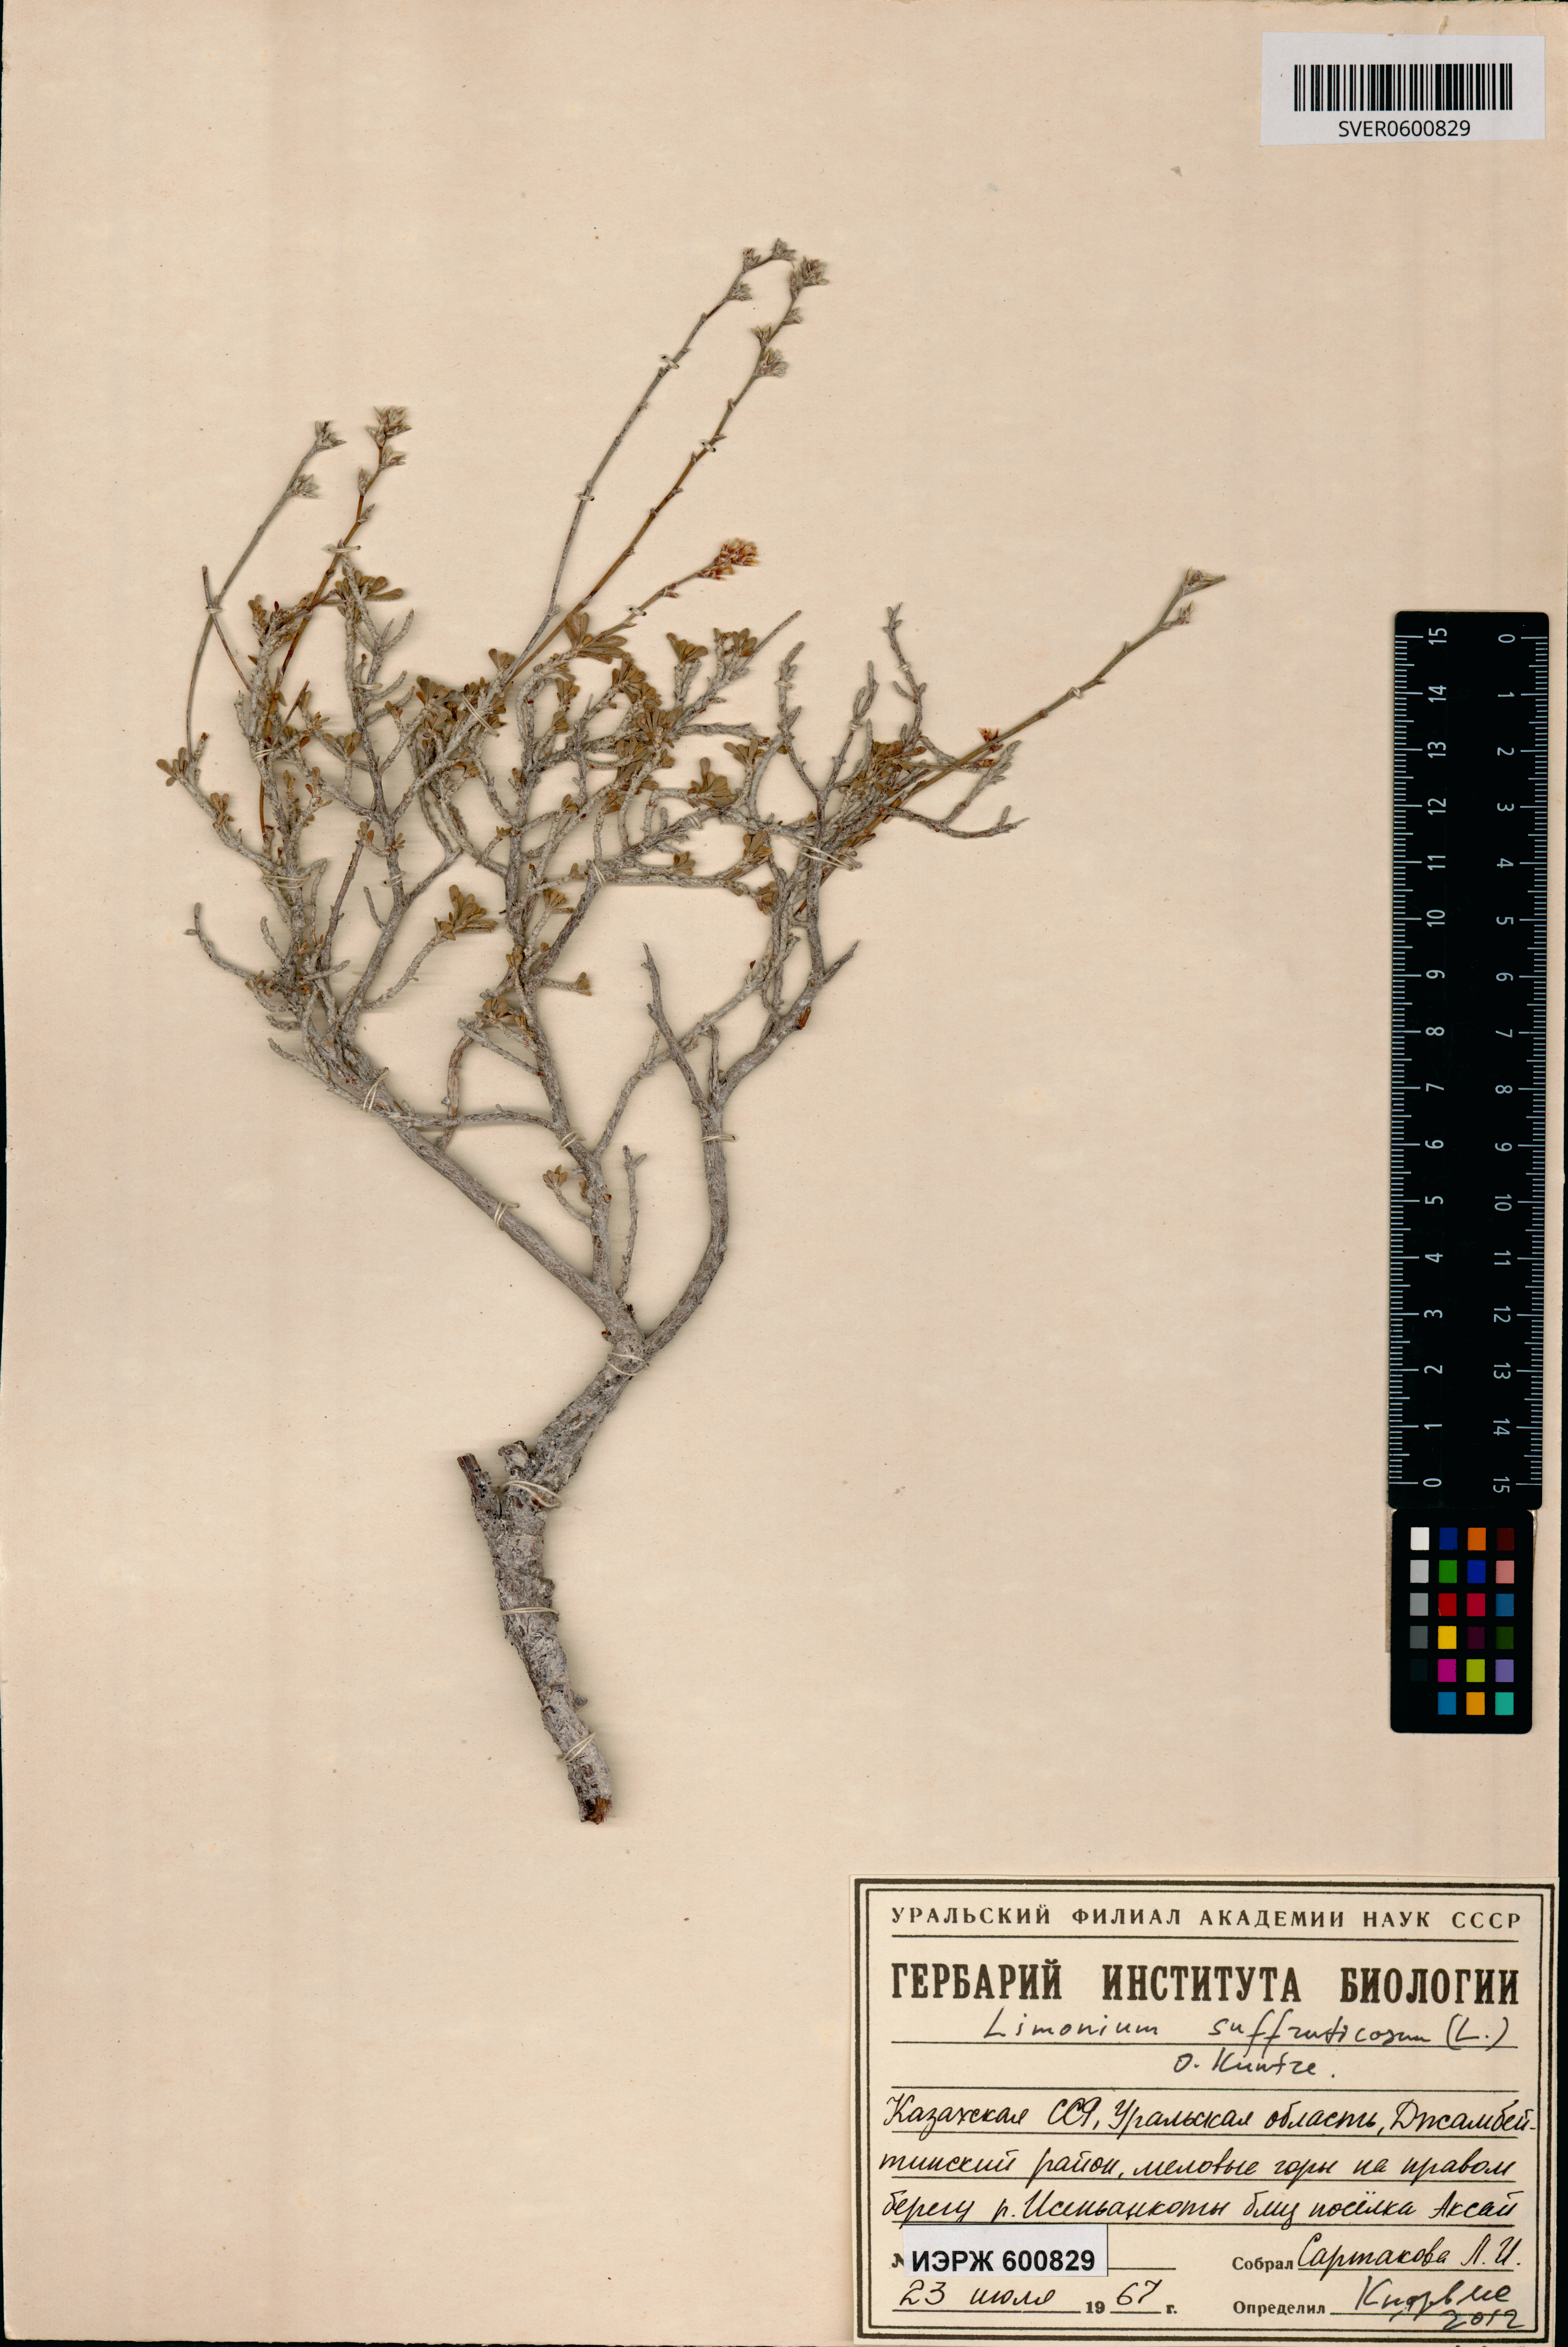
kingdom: Plantae
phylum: Tracheophyta
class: Magnoliopsida
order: Caryophyllales
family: Plumbaginaceae
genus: Limonium
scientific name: Limonium suffruticosum
